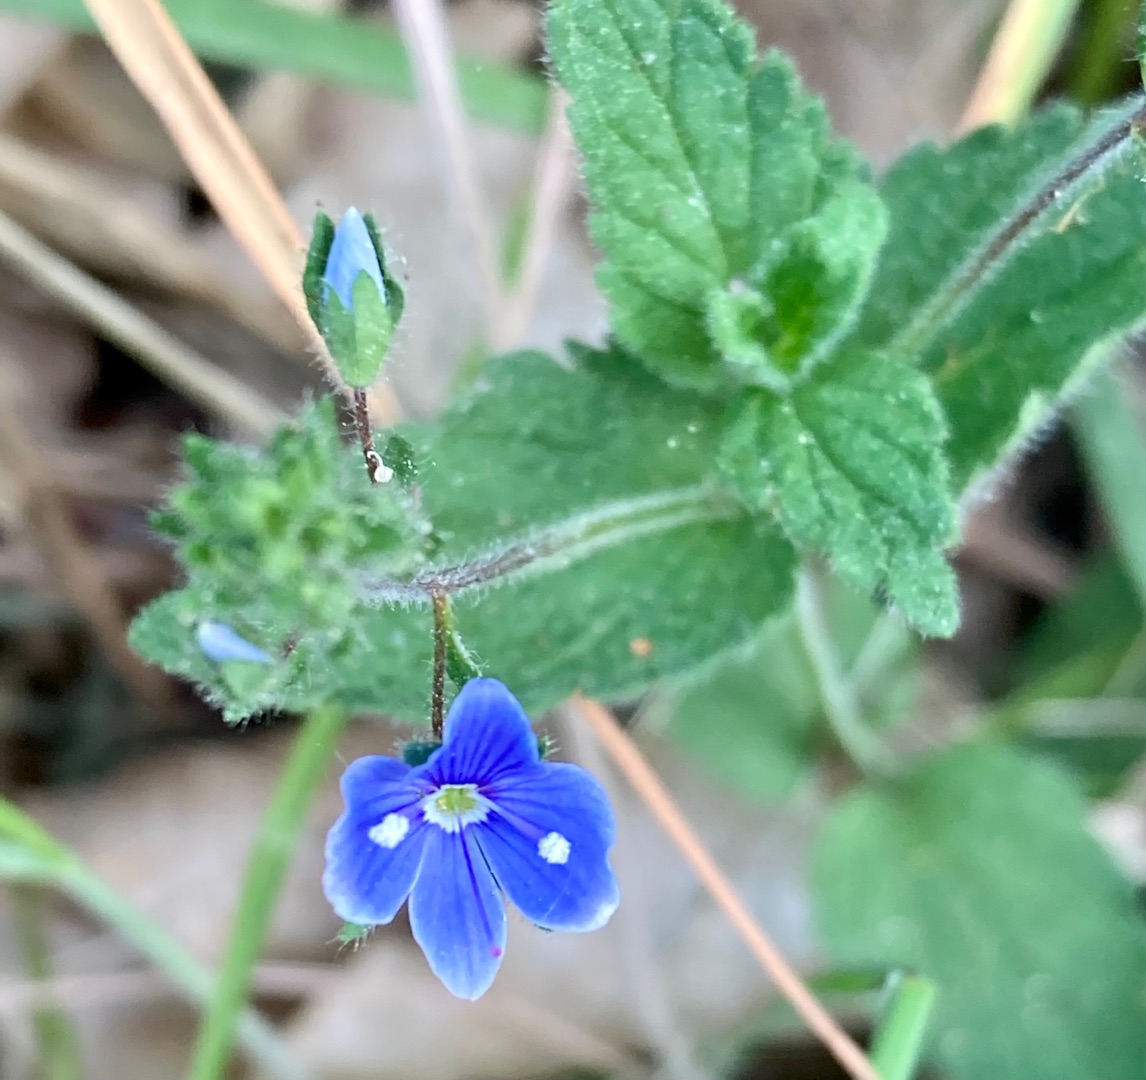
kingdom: Plantae
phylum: Tracheophyta
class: Magnoliopsida
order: Lamiales
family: Plantaginaceae
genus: Veronica
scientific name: Veronica chamaedrys
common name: Tveskægget ærenpris
